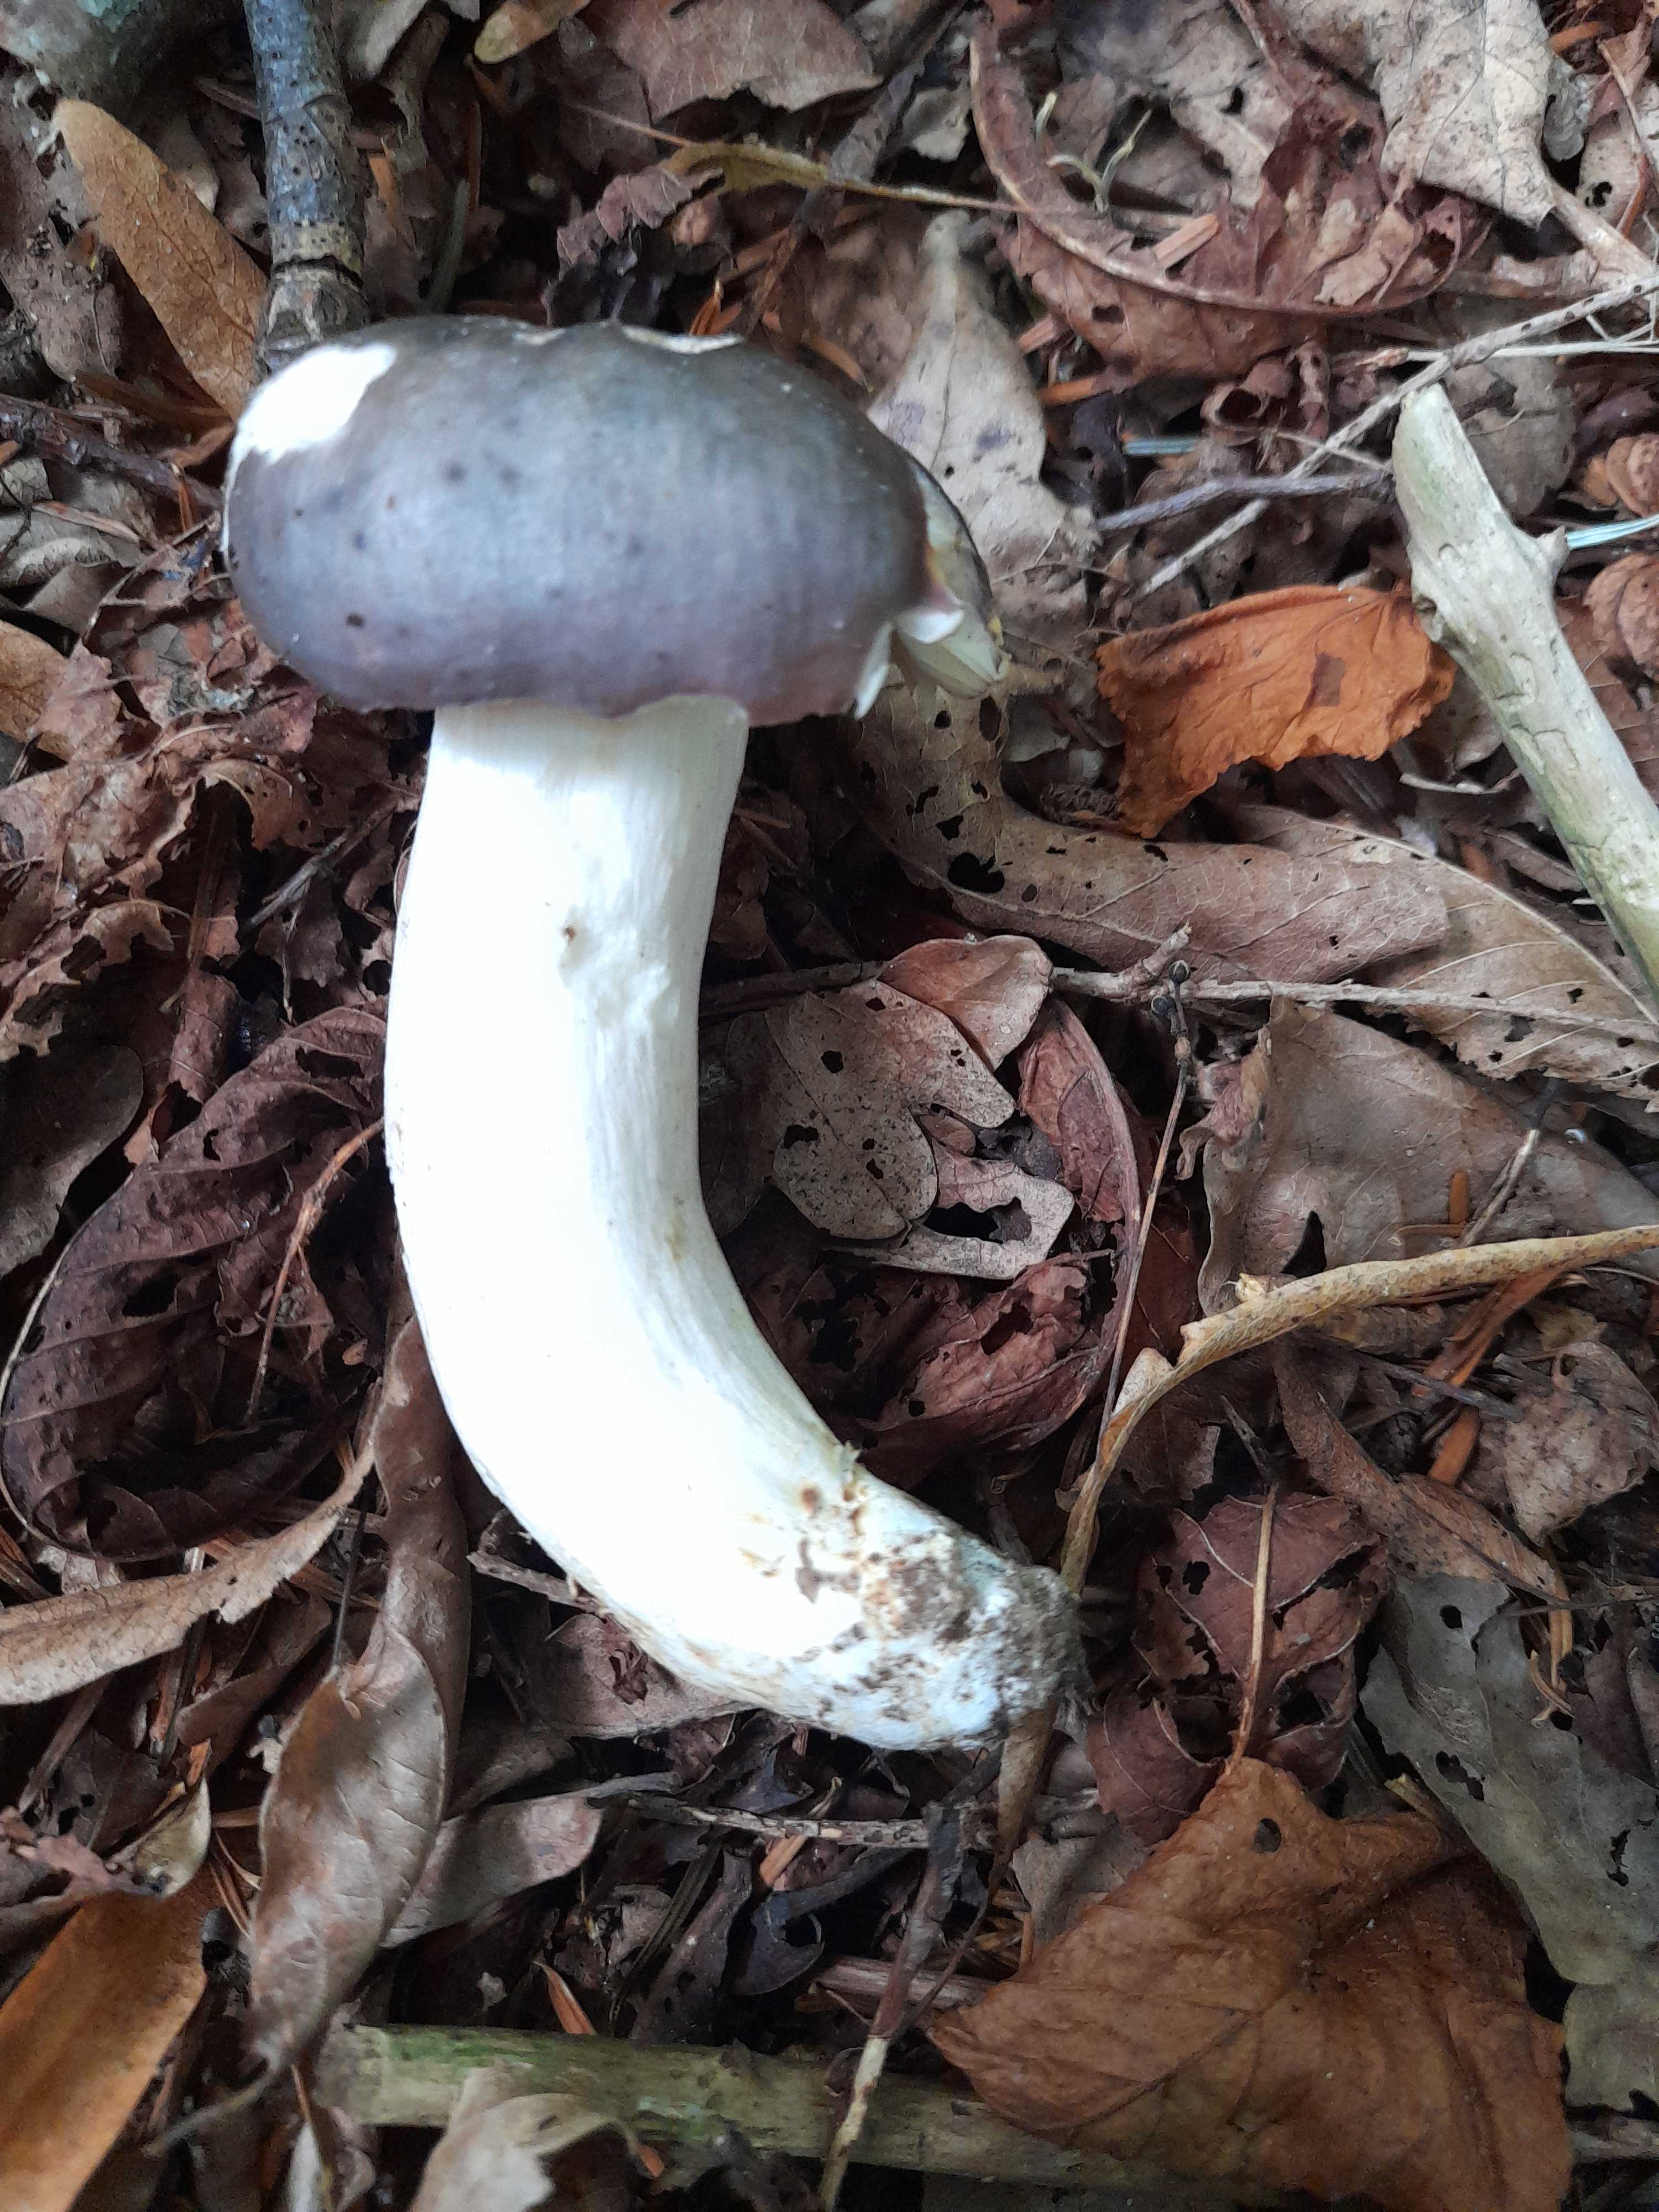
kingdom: Fungi
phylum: Basidiomycota
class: Agaricomycetes
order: Russulales
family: Russulaceae
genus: Russula
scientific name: Russula cyanoxantha
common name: broget skørhat
